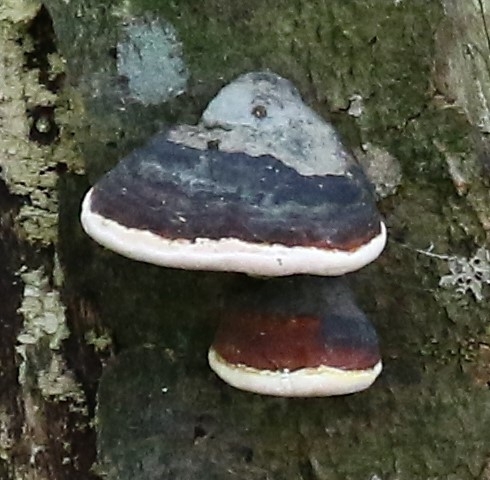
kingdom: Fungi
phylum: Basidiomycota
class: Agaricomycetes
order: Polyporales
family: Fomitopsidaceae
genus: Fomitopsis
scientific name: Fomitopsis pinicola
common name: Randbæltet hovporesvamp
